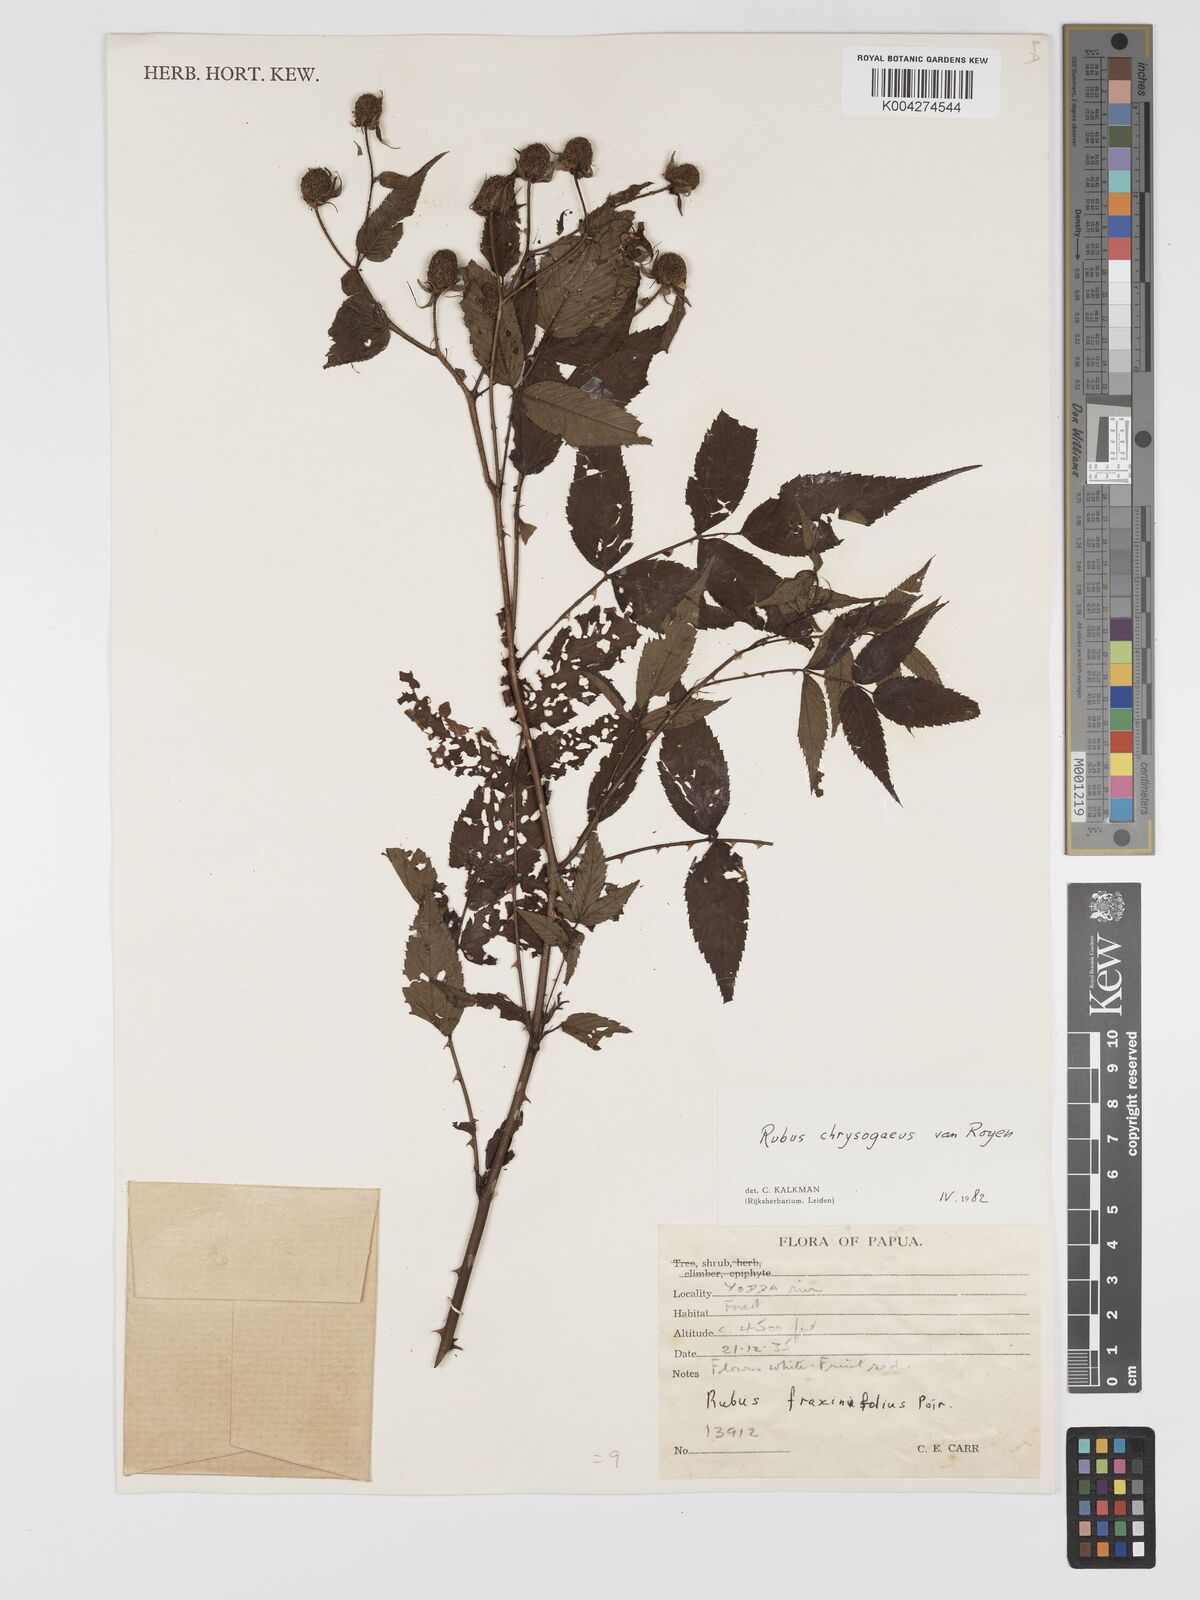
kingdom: Plantae
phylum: Tracheophyta
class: Magnoliopsida
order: Rosales
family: Rosaceae
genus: Rubus
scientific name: Rubus chrysogaeus
